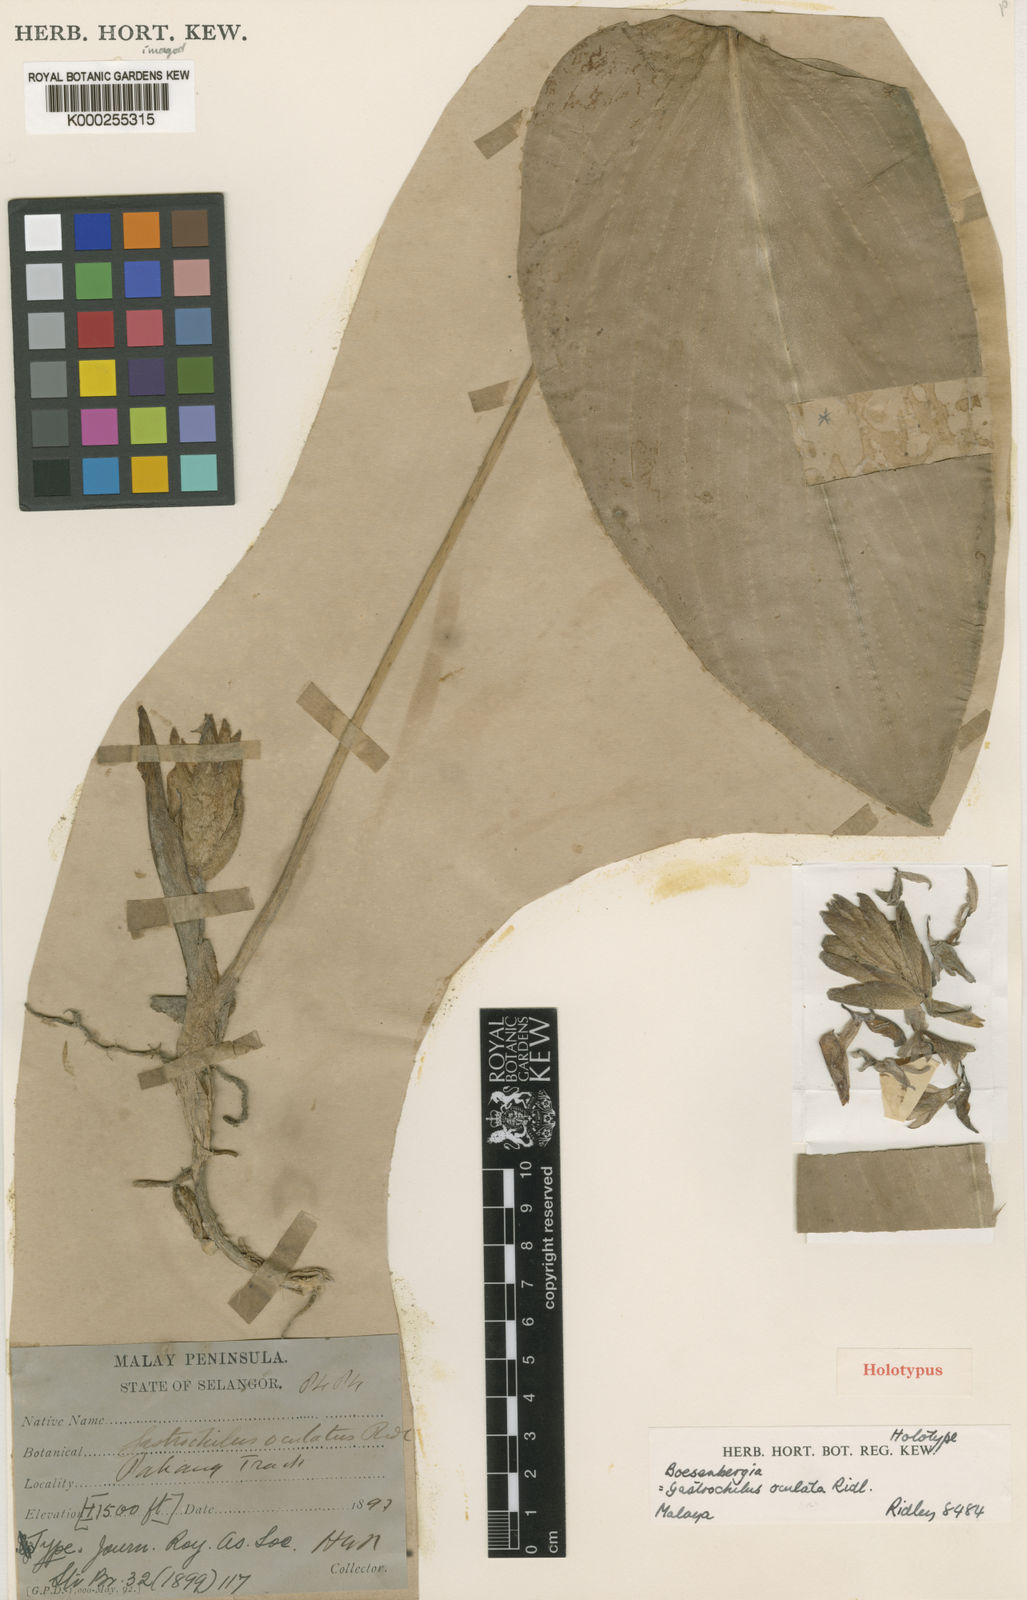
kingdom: Plantae
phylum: Tracheophyta
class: Liliopsida
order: Zingiberales
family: Zingiberaceae
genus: Scaphochlamys
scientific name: Scaphochlamys oculata
